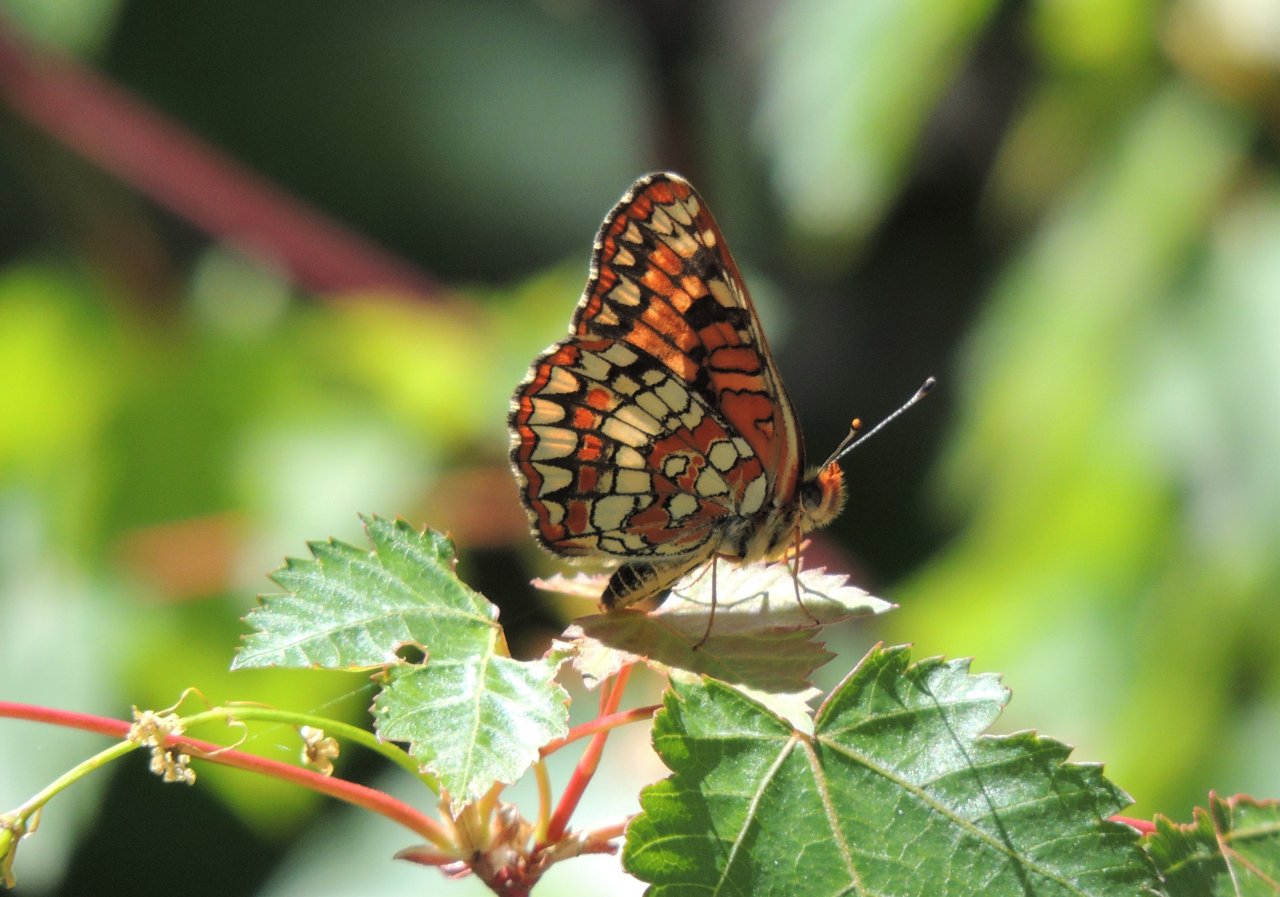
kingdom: Animalia
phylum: Arthropoda
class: Insecta
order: Lepidoptera
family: Nymphalidae
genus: Chlosyne
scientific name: Chlosyne palla
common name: Northern Checkerspot
